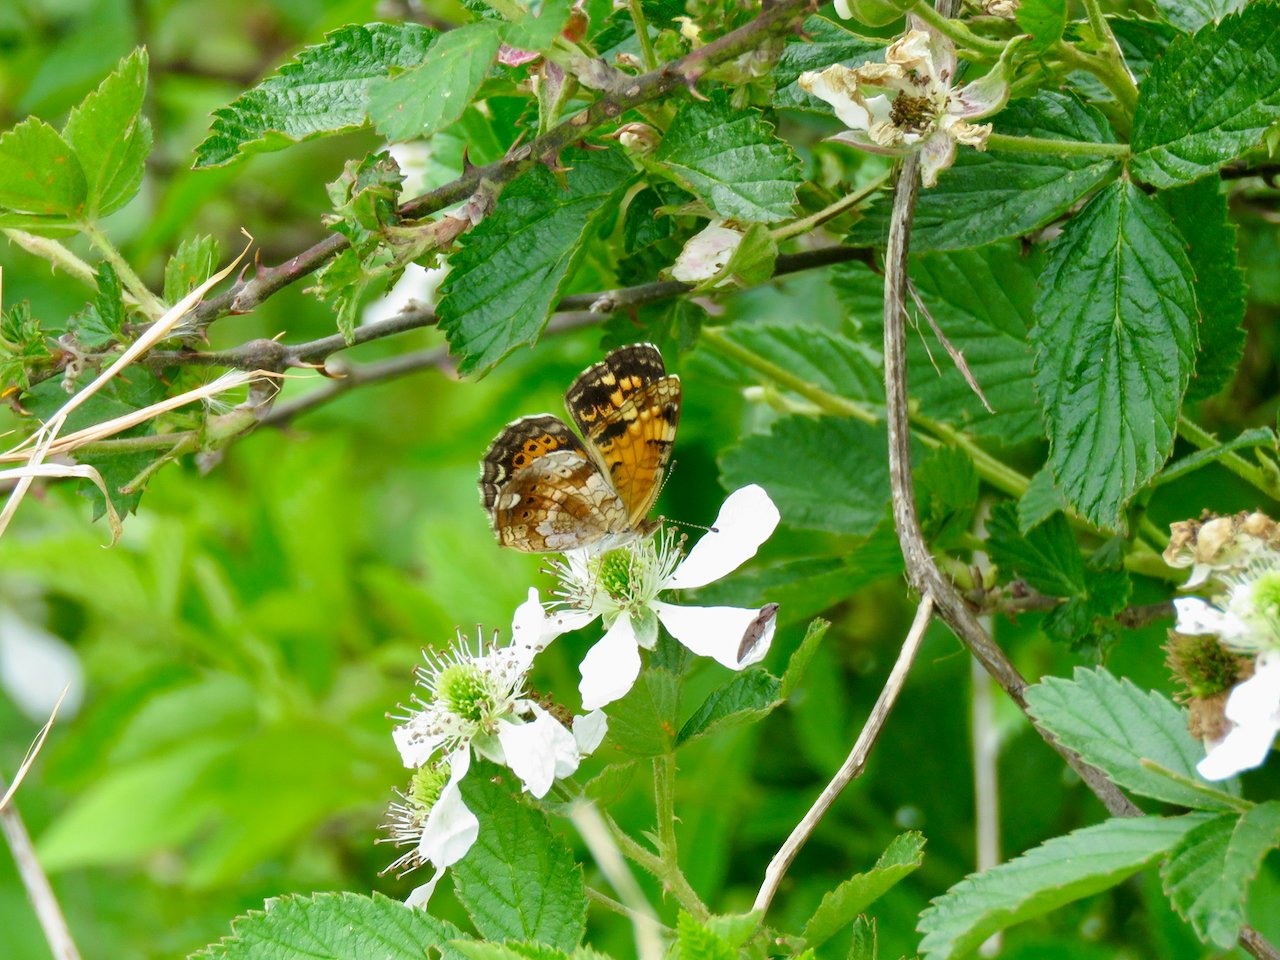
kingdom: Animalia
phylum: Arthropoda
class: Insecta
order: Lepidoptera
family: Nymphalidae
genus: Phyciodes
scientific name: Phyciodes tharos
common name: Pearl Crescent
